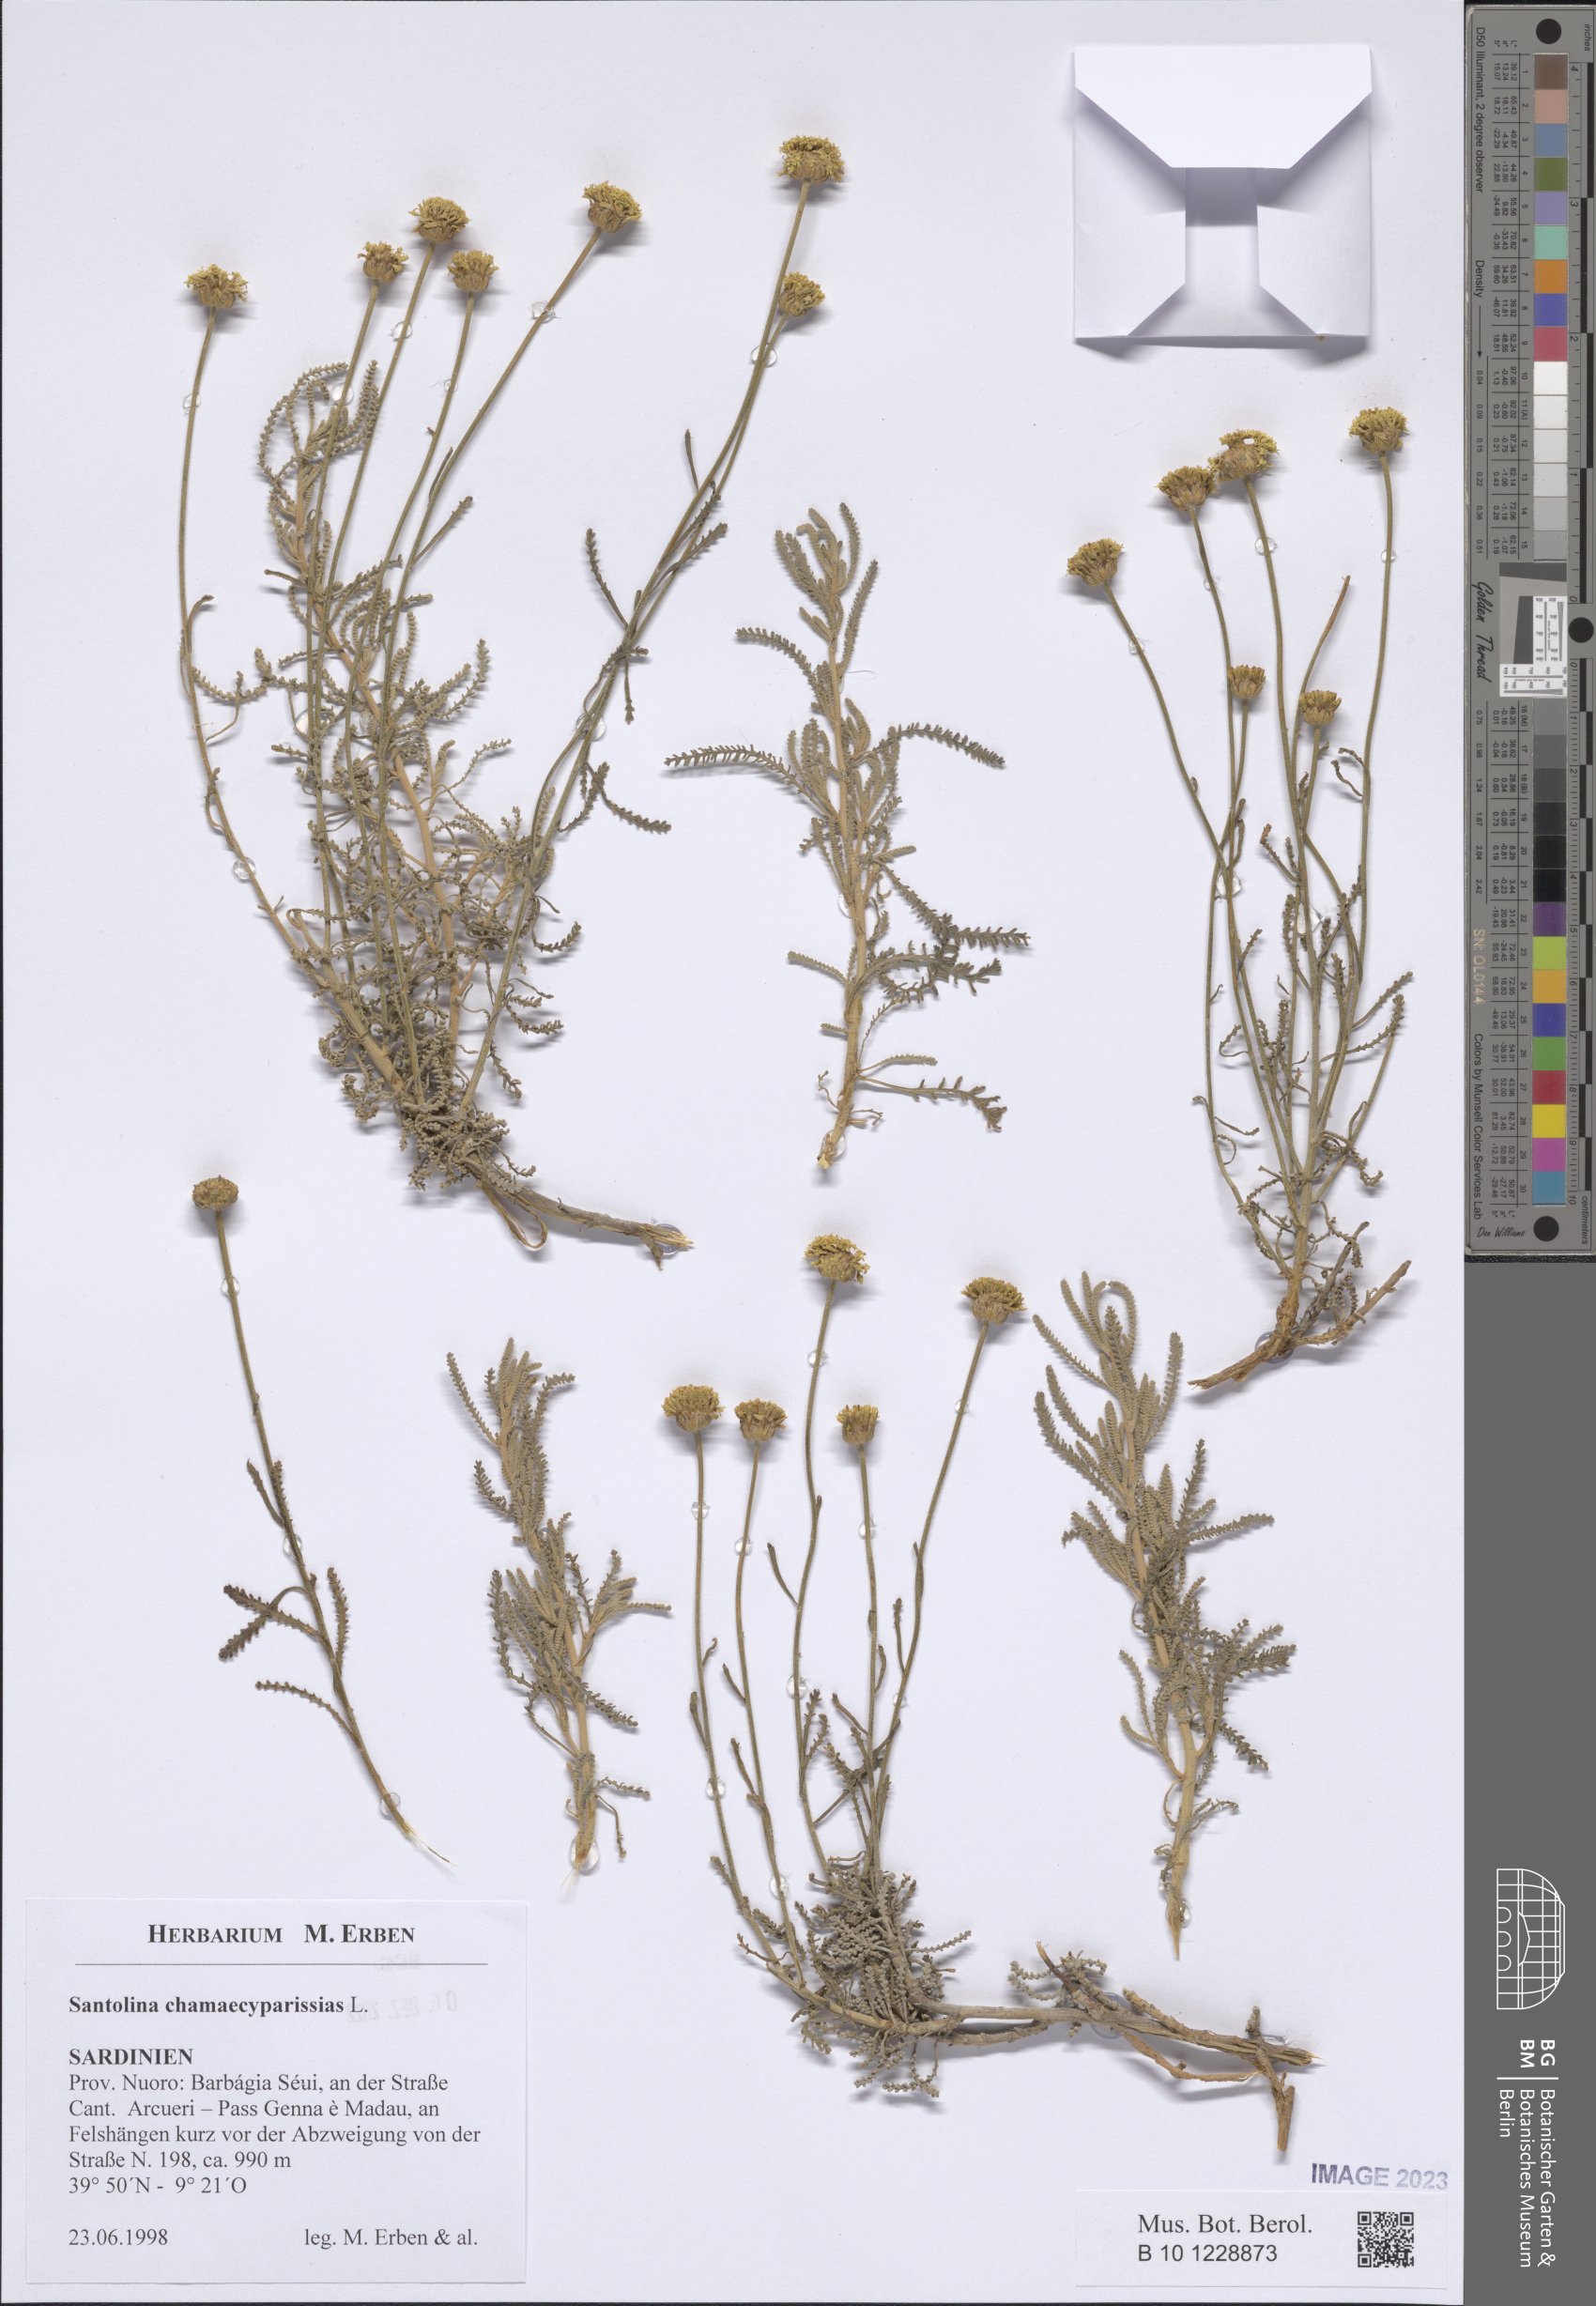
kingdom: Plantae
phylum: Tracheophyta
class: Magnoliopsida
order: Asterales
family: Asteraceae
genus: Santolina
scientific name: Santolina chamaecyparissus
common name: Lavender-cotton
